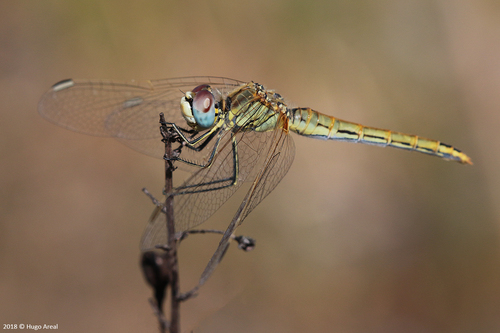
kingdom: Animalia
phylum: Arthropoda
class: Insecta
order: Odonata
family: Libellulidae
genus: Sympetrum
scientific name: Sympetrum fonscolombii
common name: Red-veined darter
